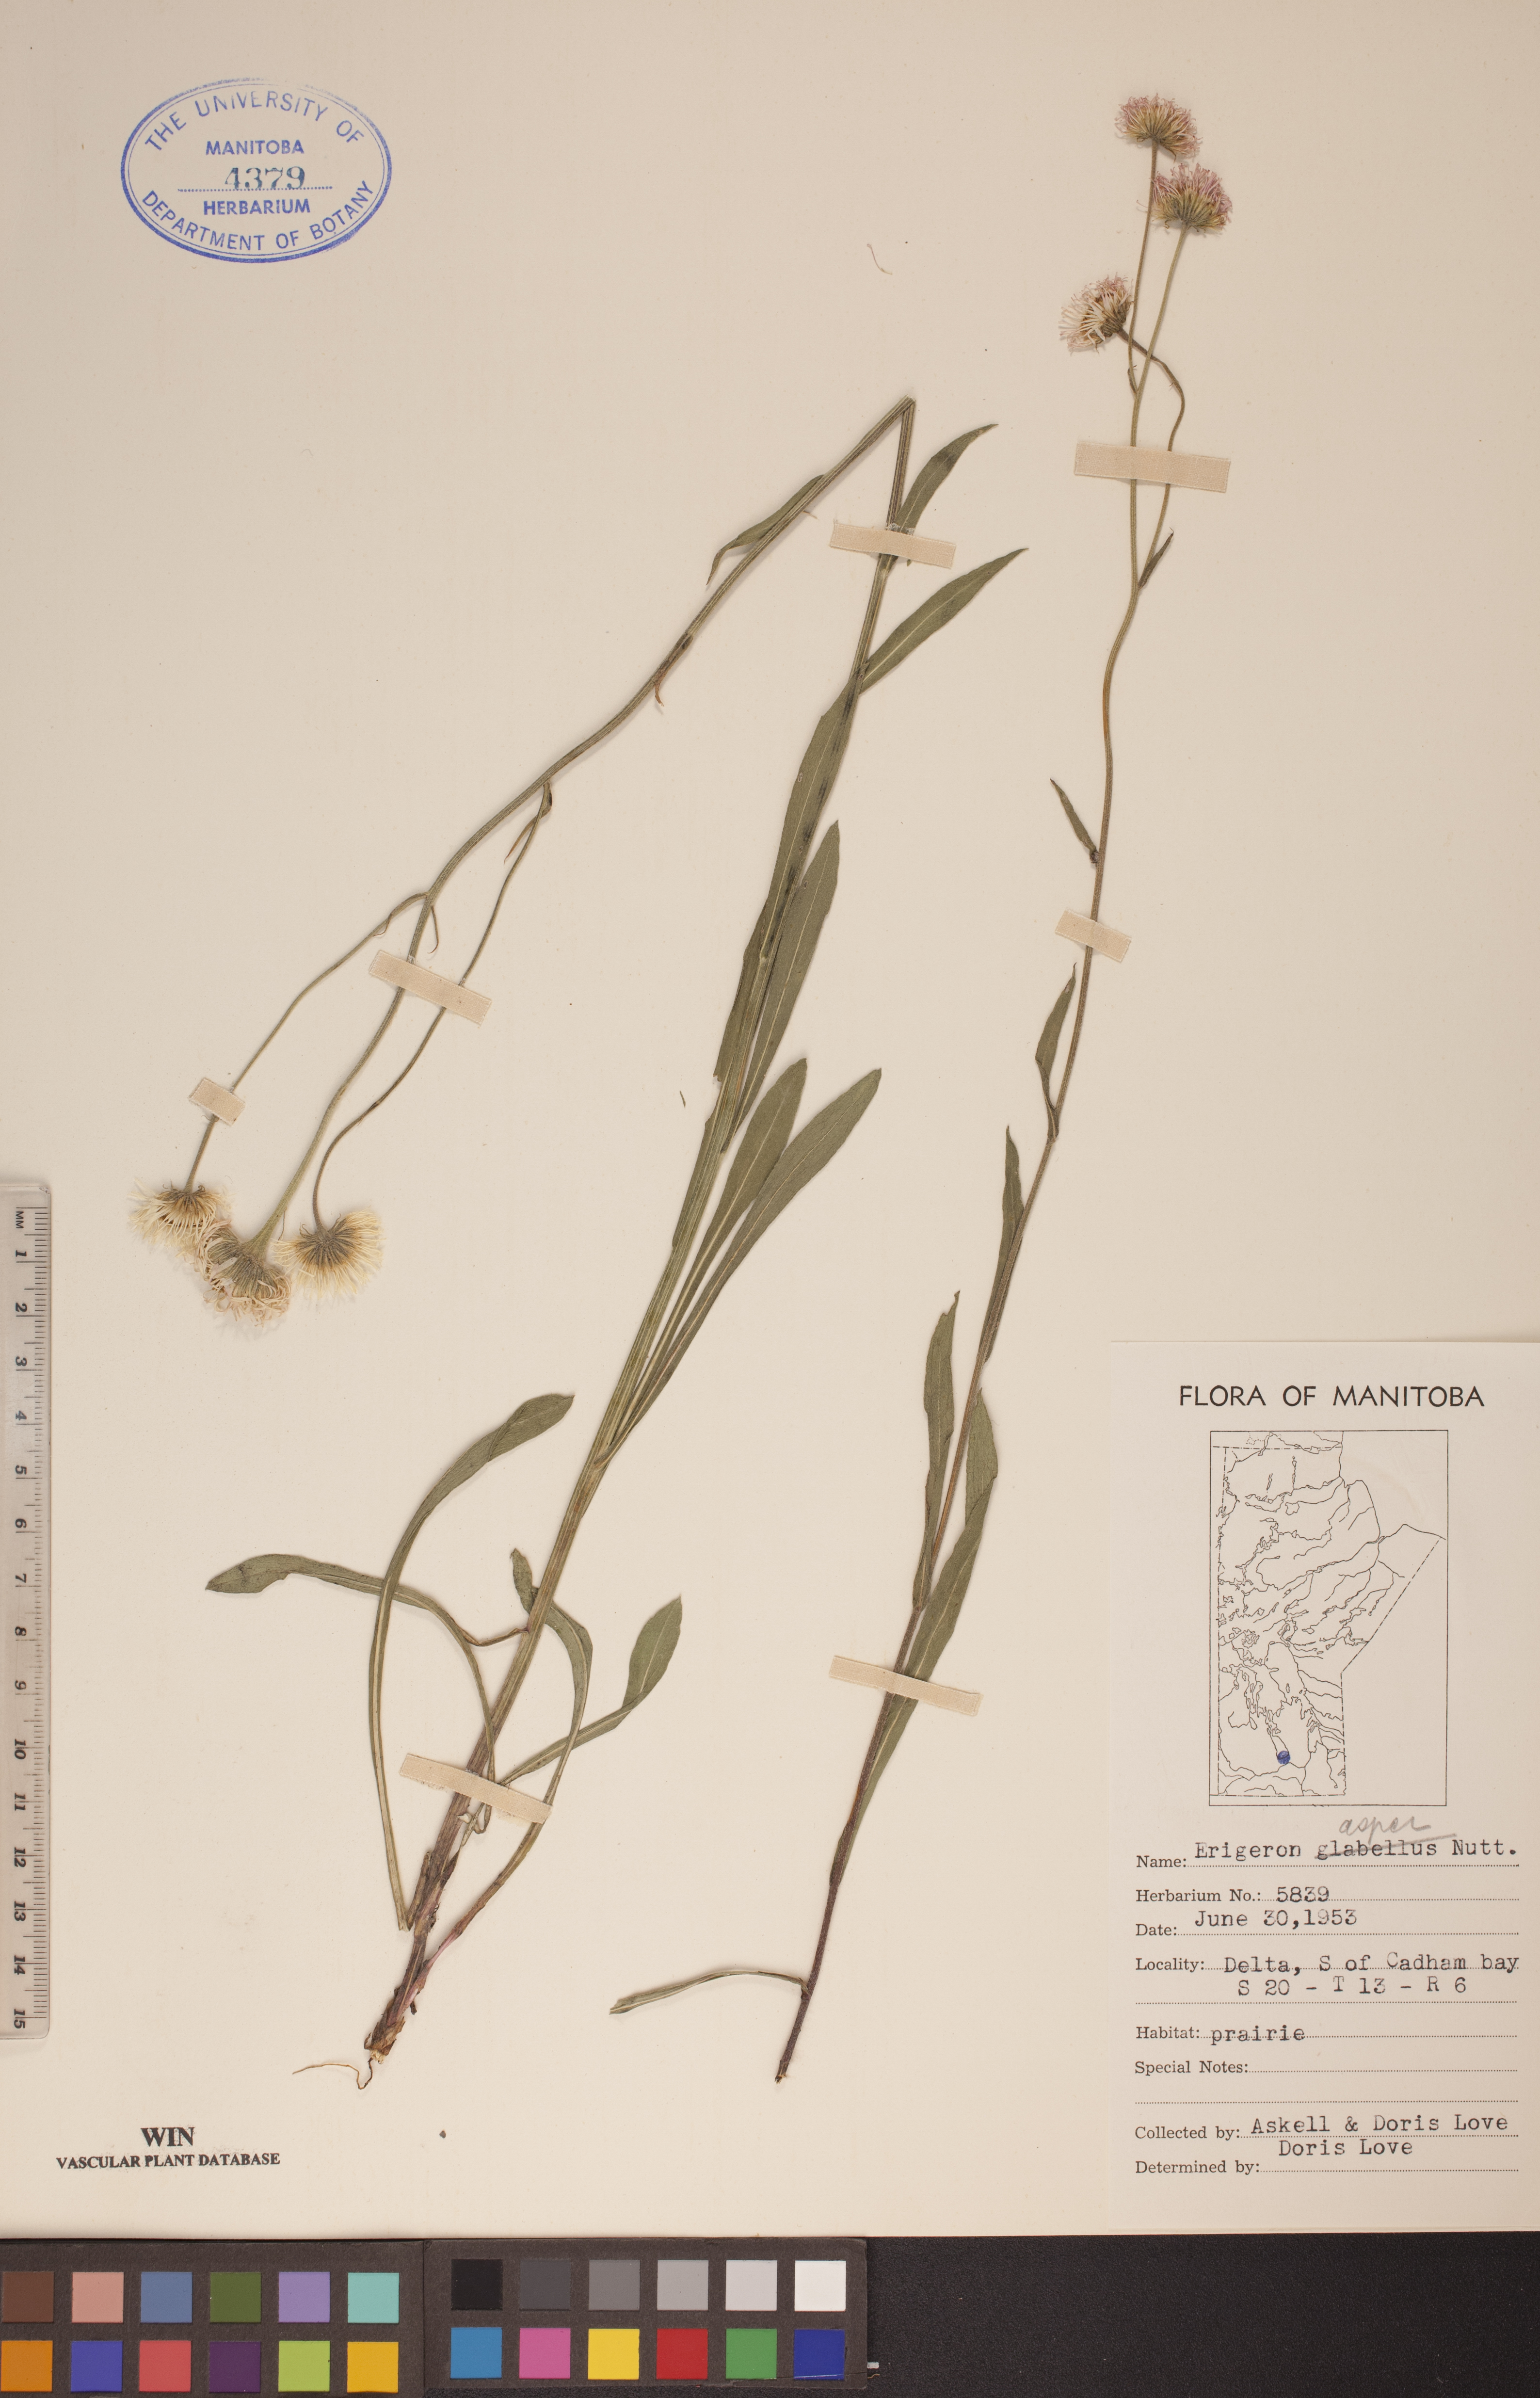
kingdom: Plantae
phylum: Tracheophyta
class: Magnoliopsida
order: Asterales
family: Asteraceae
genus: Erigeron
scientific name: Erigeron glabellus
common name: Smooth fleabane
